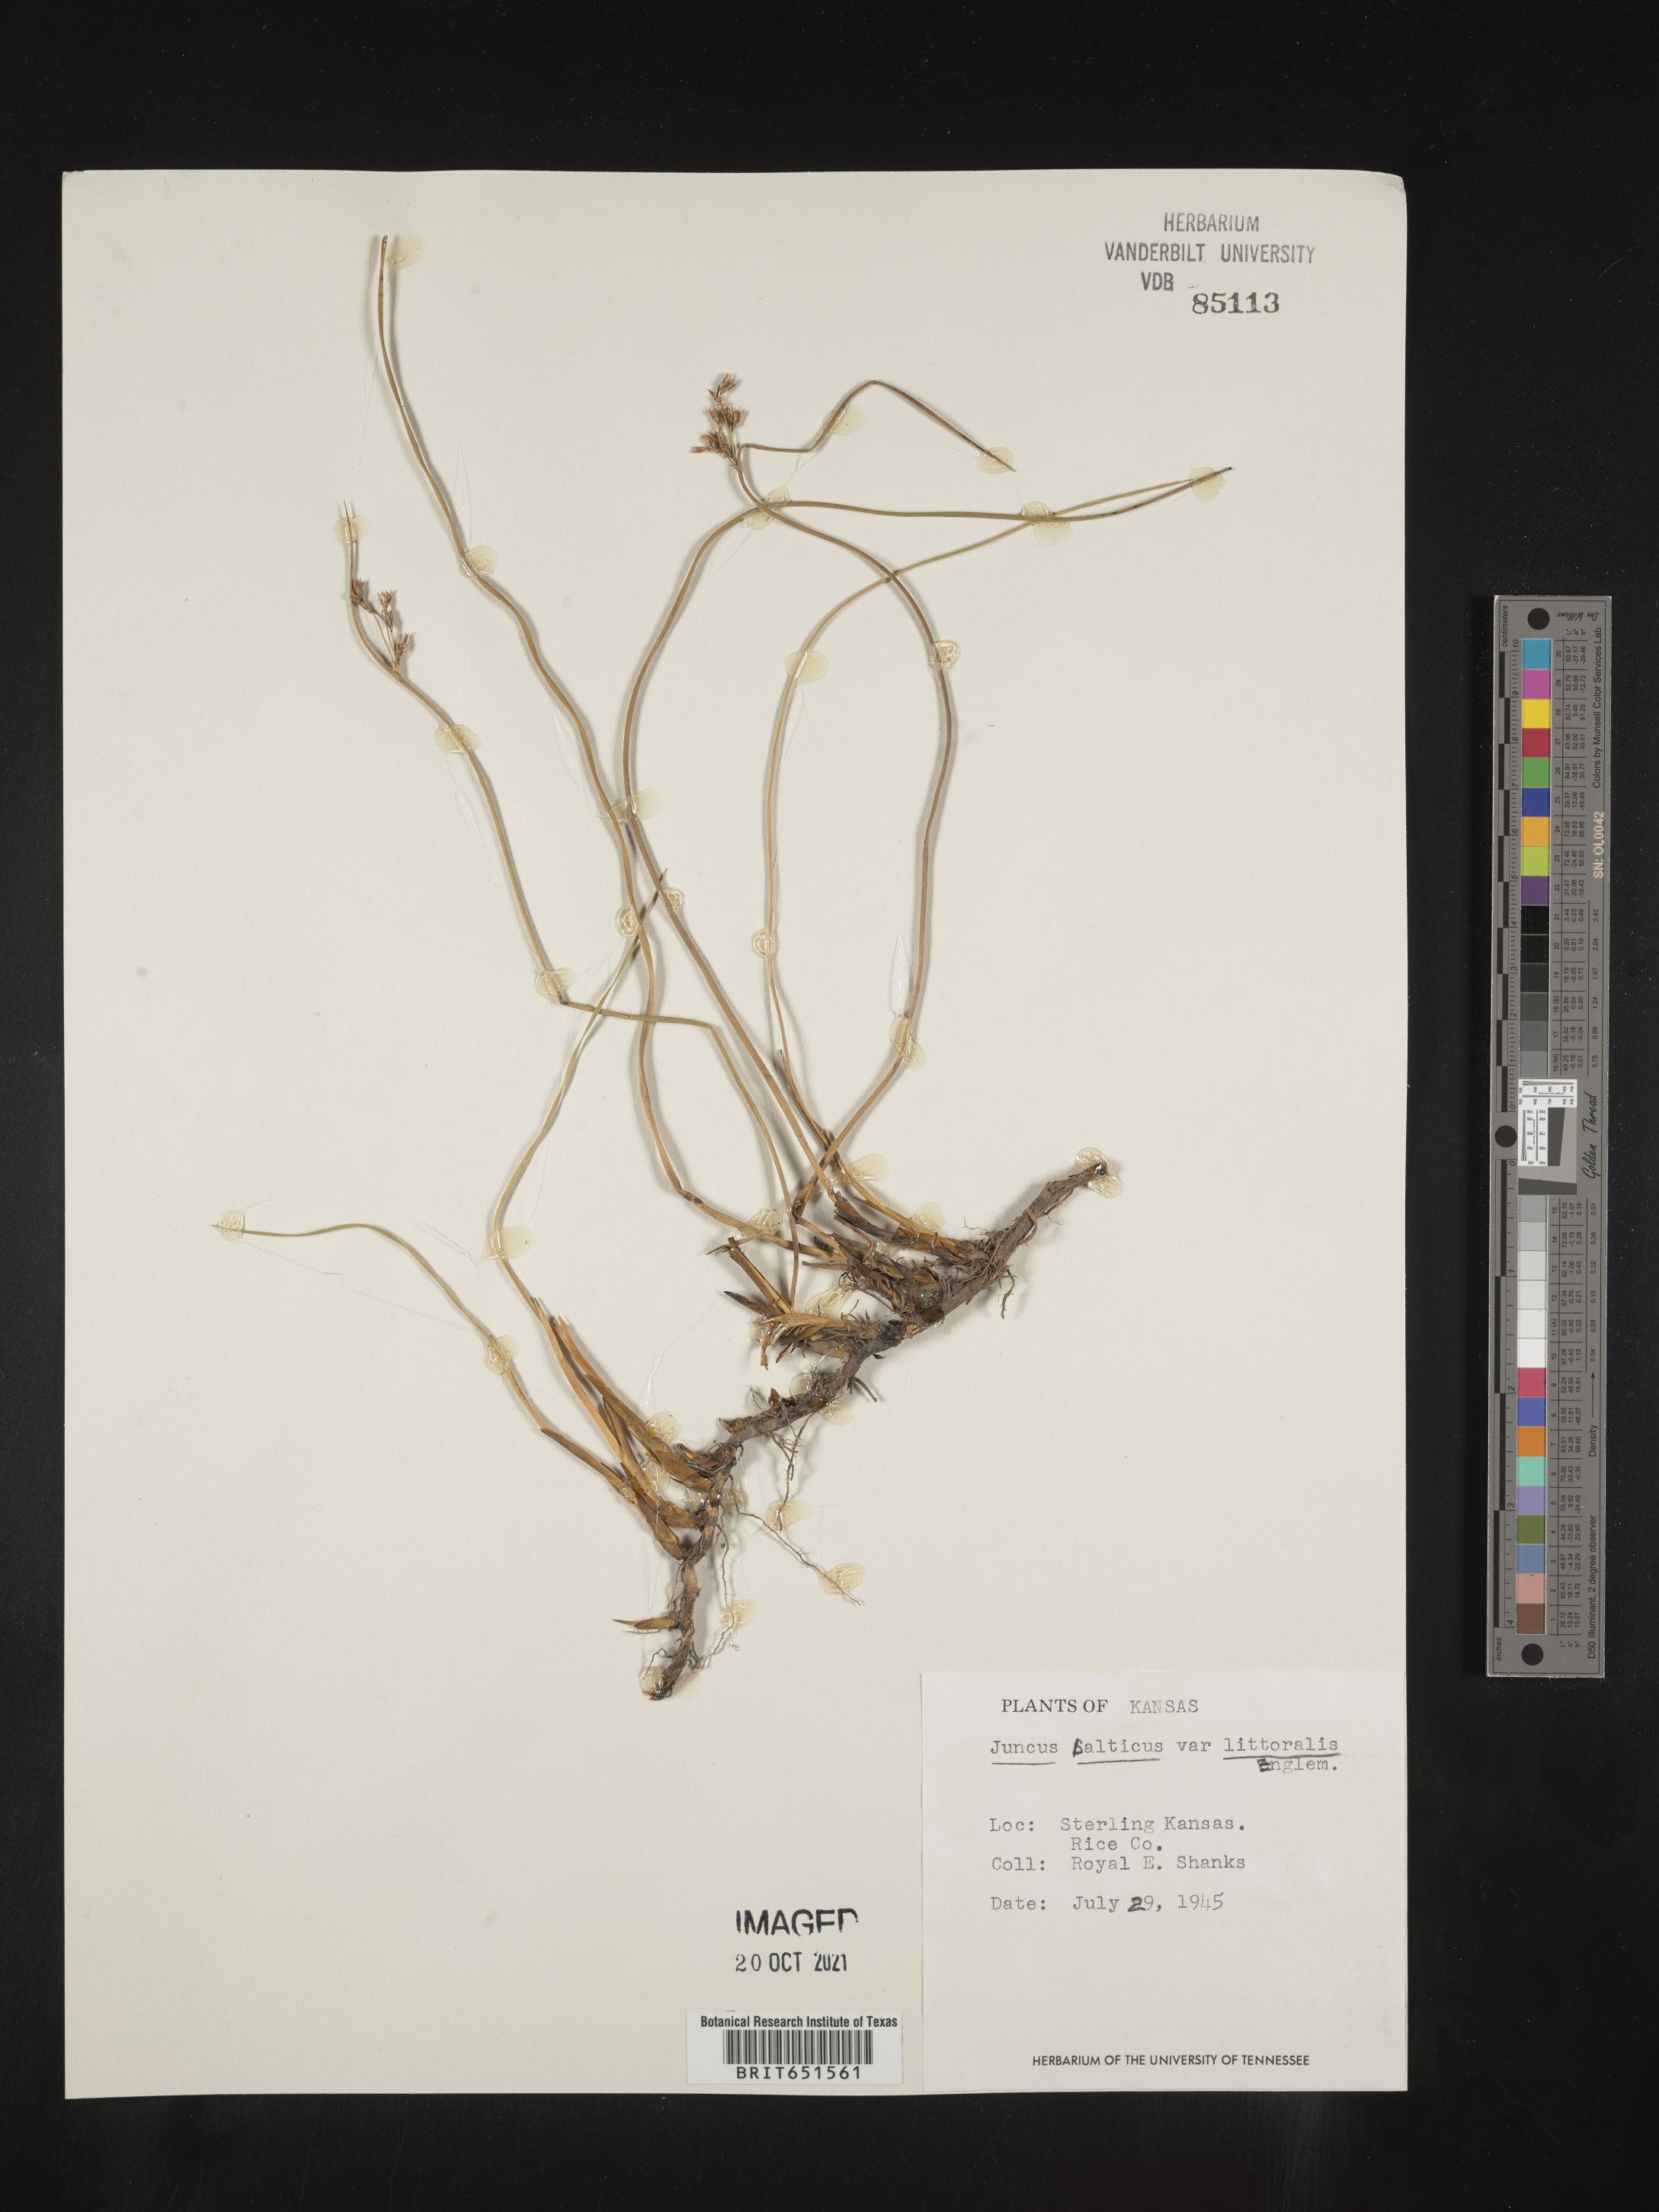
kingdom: Plantae
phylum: Tracheophyta
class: Liliopsida
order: Poales
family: Juncaceae
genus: Juncus
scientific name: Juncus balticus
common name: Baltic rush
